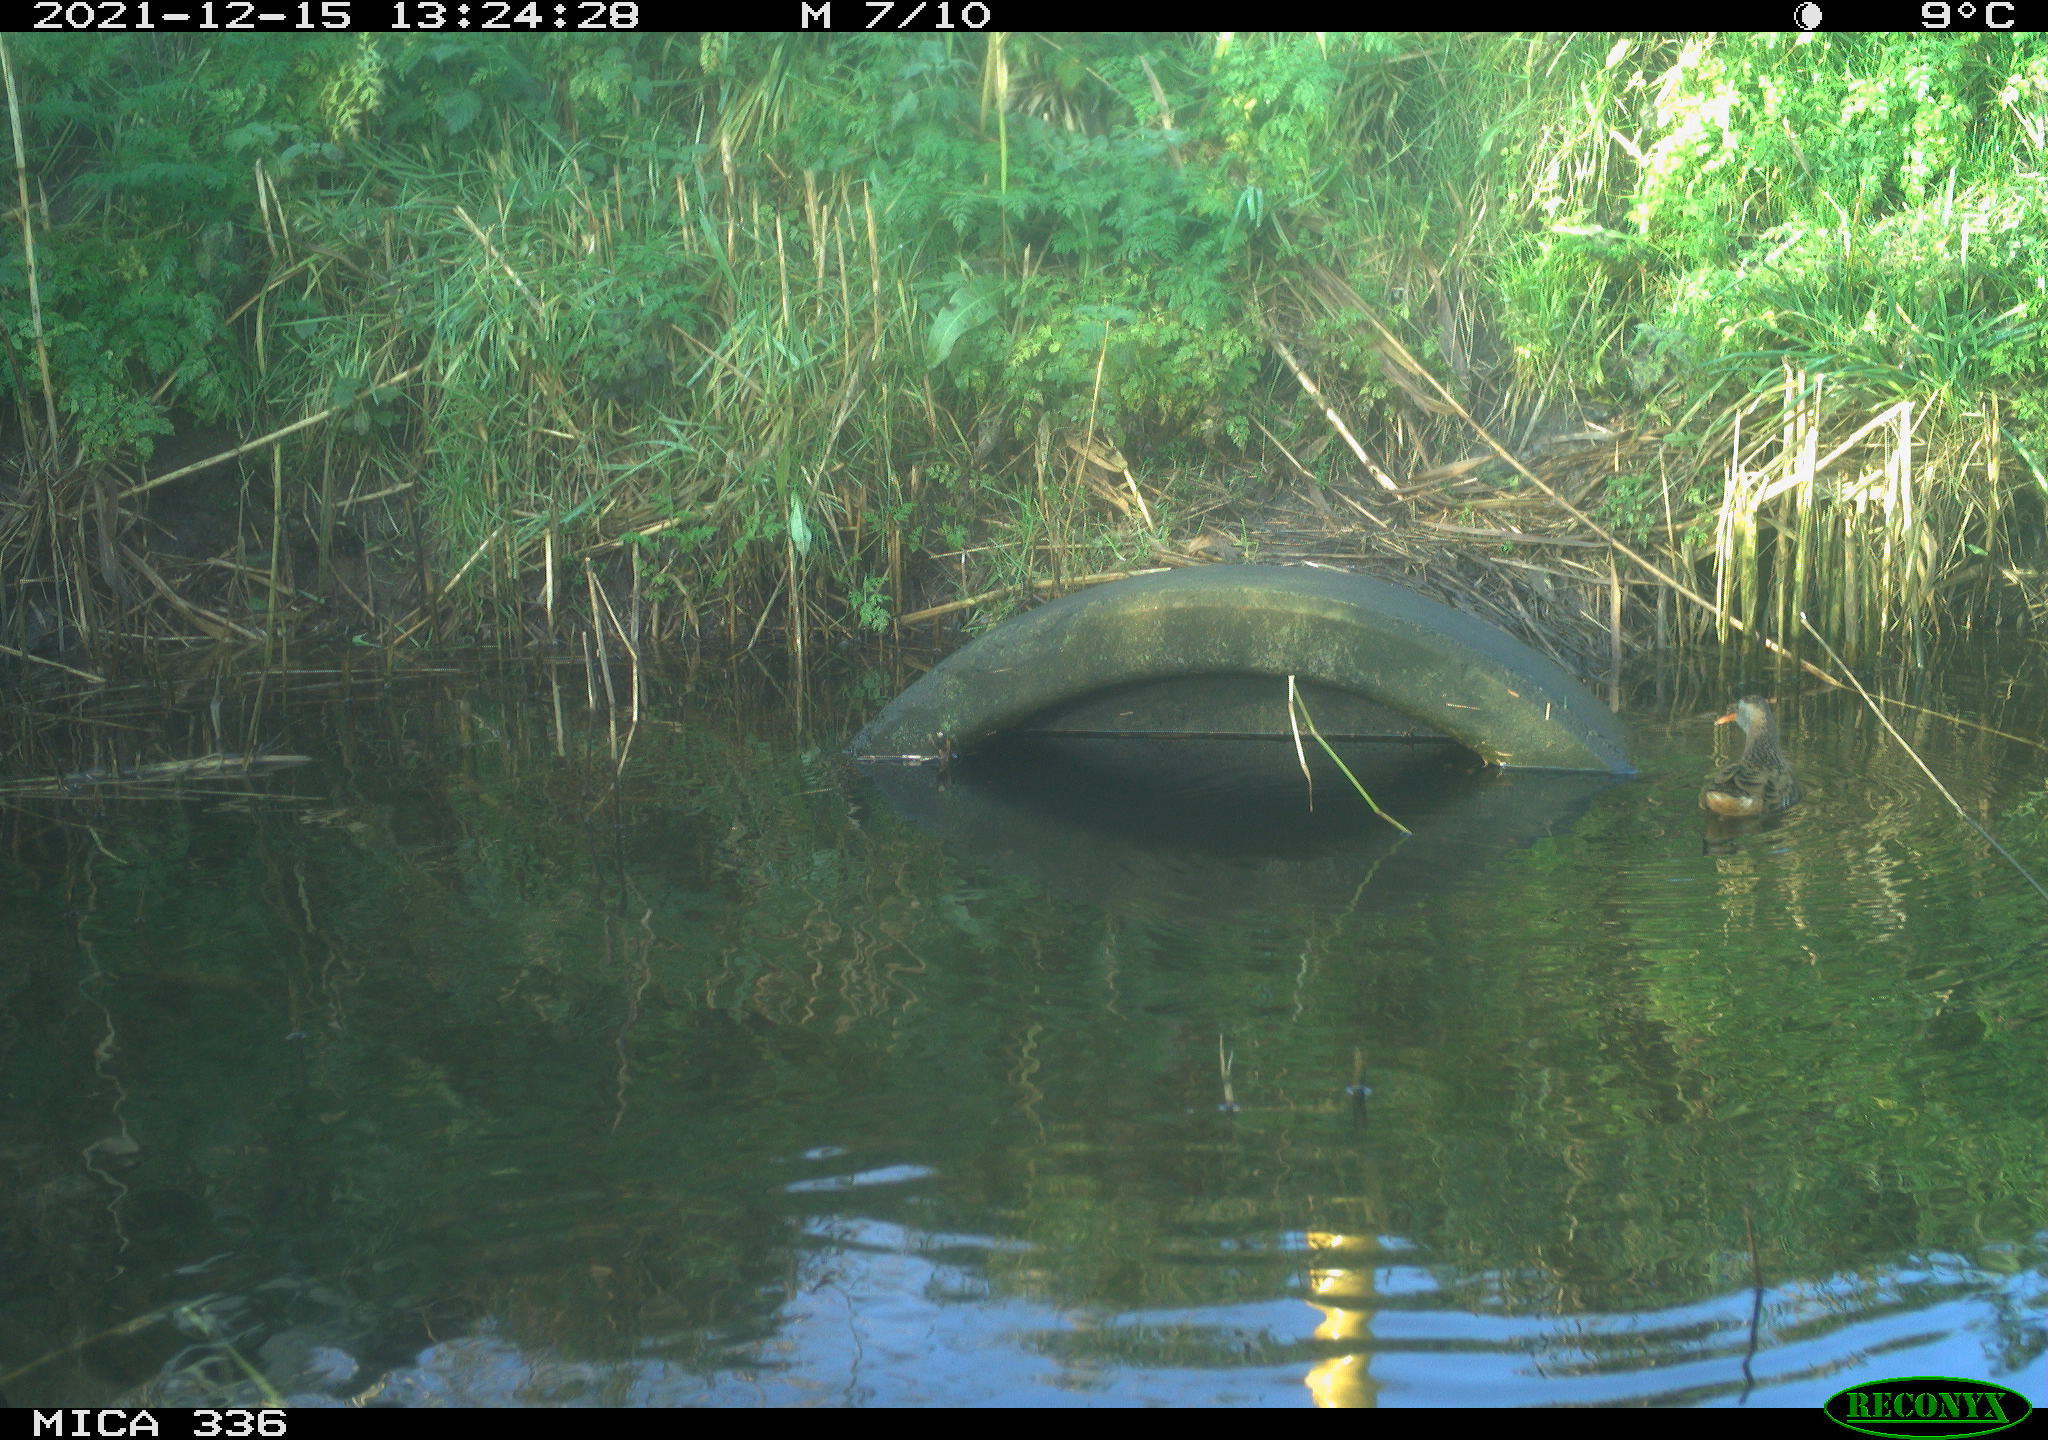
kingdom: Animalia
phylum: Chordata
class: Aves
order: Gruiformes
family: Rallidae
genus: Gallinula
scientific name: Gallinula chloropus
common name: Common moorhen
